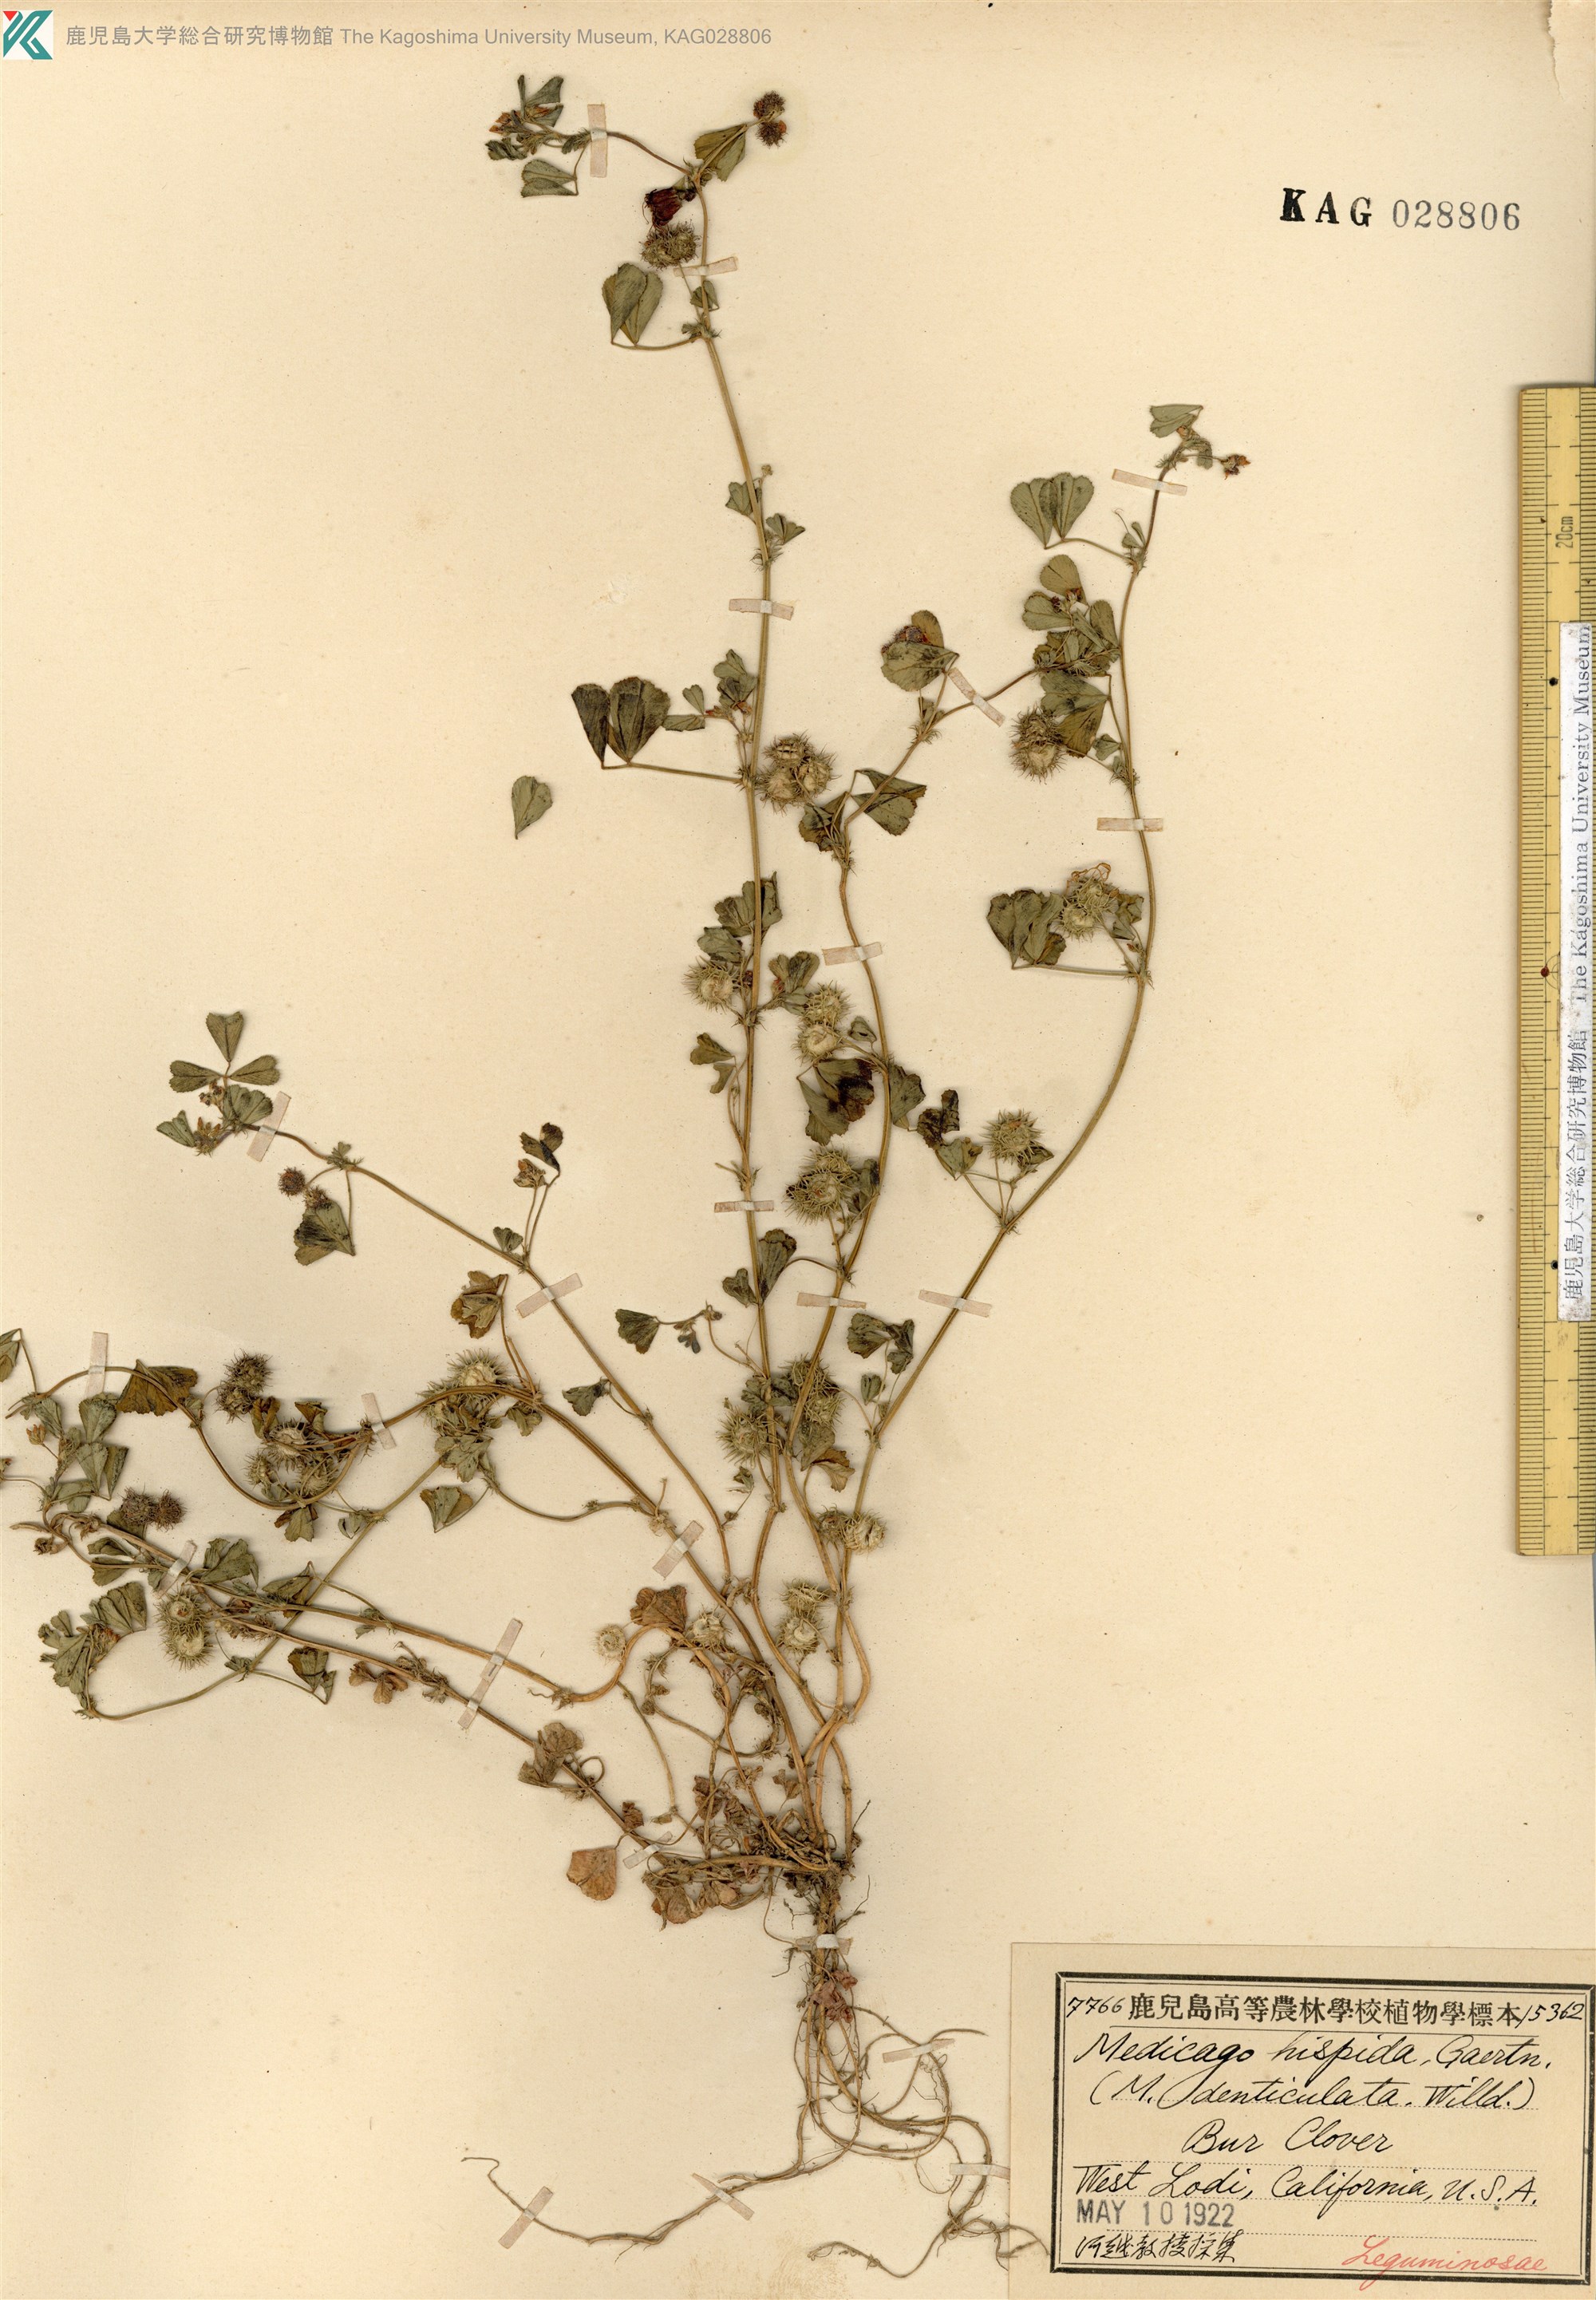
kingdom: Plantae
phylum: Tracheophyta
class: Magnoliopsida
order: Fabales
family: Fabaceae
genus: Medicago
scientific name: Medicago polymorpha
